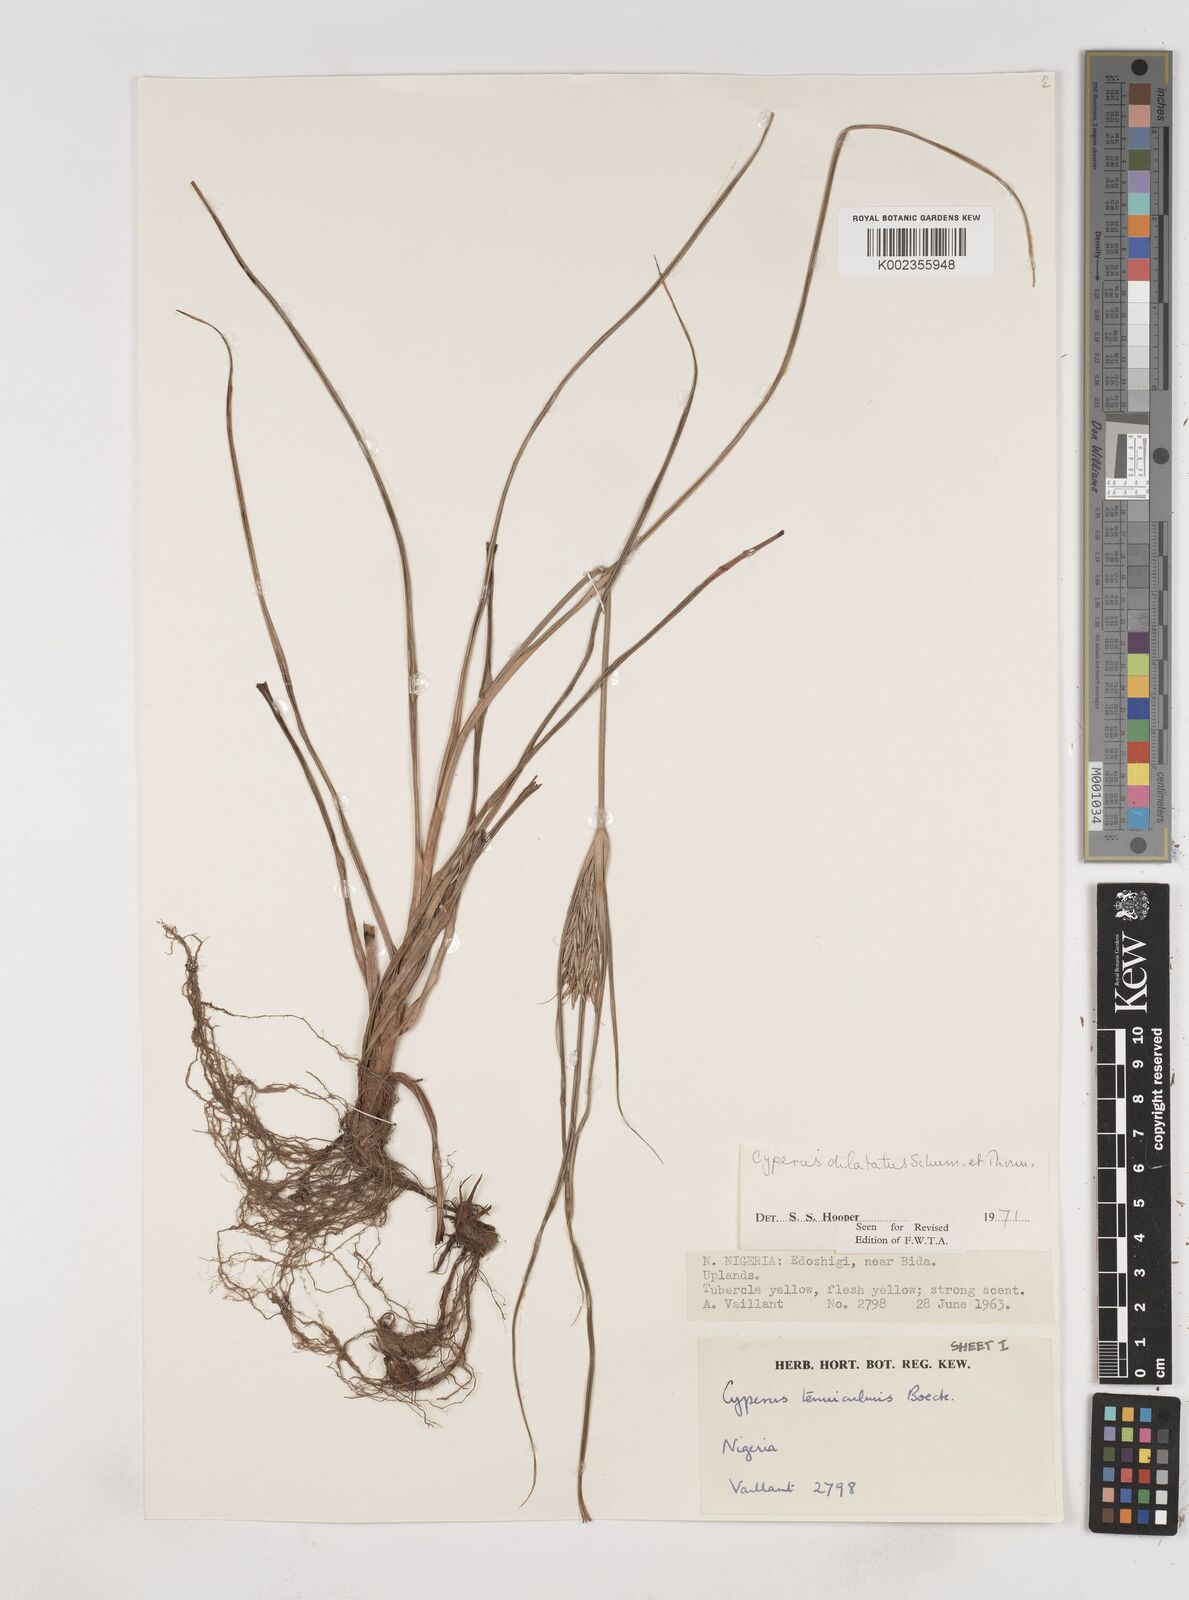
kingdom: Plantae
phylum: Tracheophyta
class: Liliopsida
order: Poales
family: Cyperaceae
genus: Cyperus
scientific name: Cyperus dilatatus
